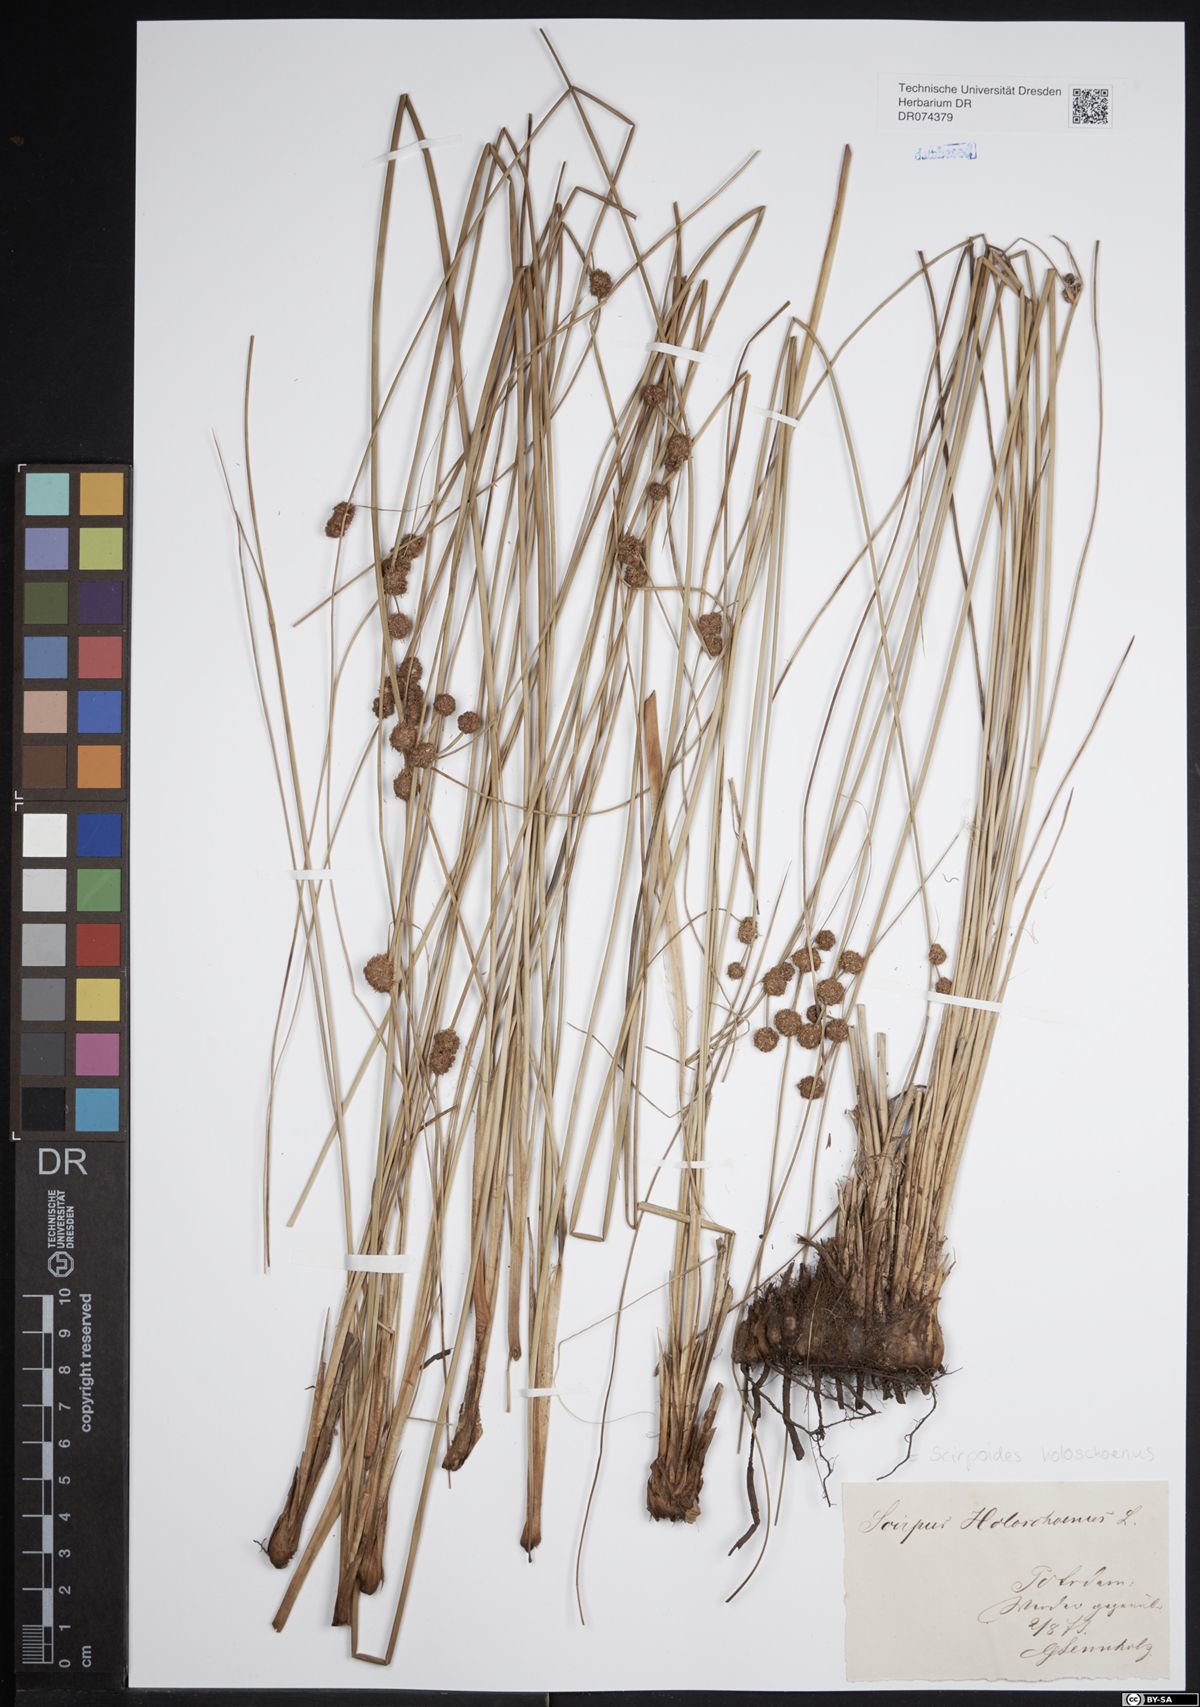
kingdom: Plantae
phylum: Tracheophyta
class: Liliopsida
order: Poales
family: Cyperaceae
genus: Scirpoides
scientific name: Scirpoides holoschoenus
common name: Round-headed club-rush
